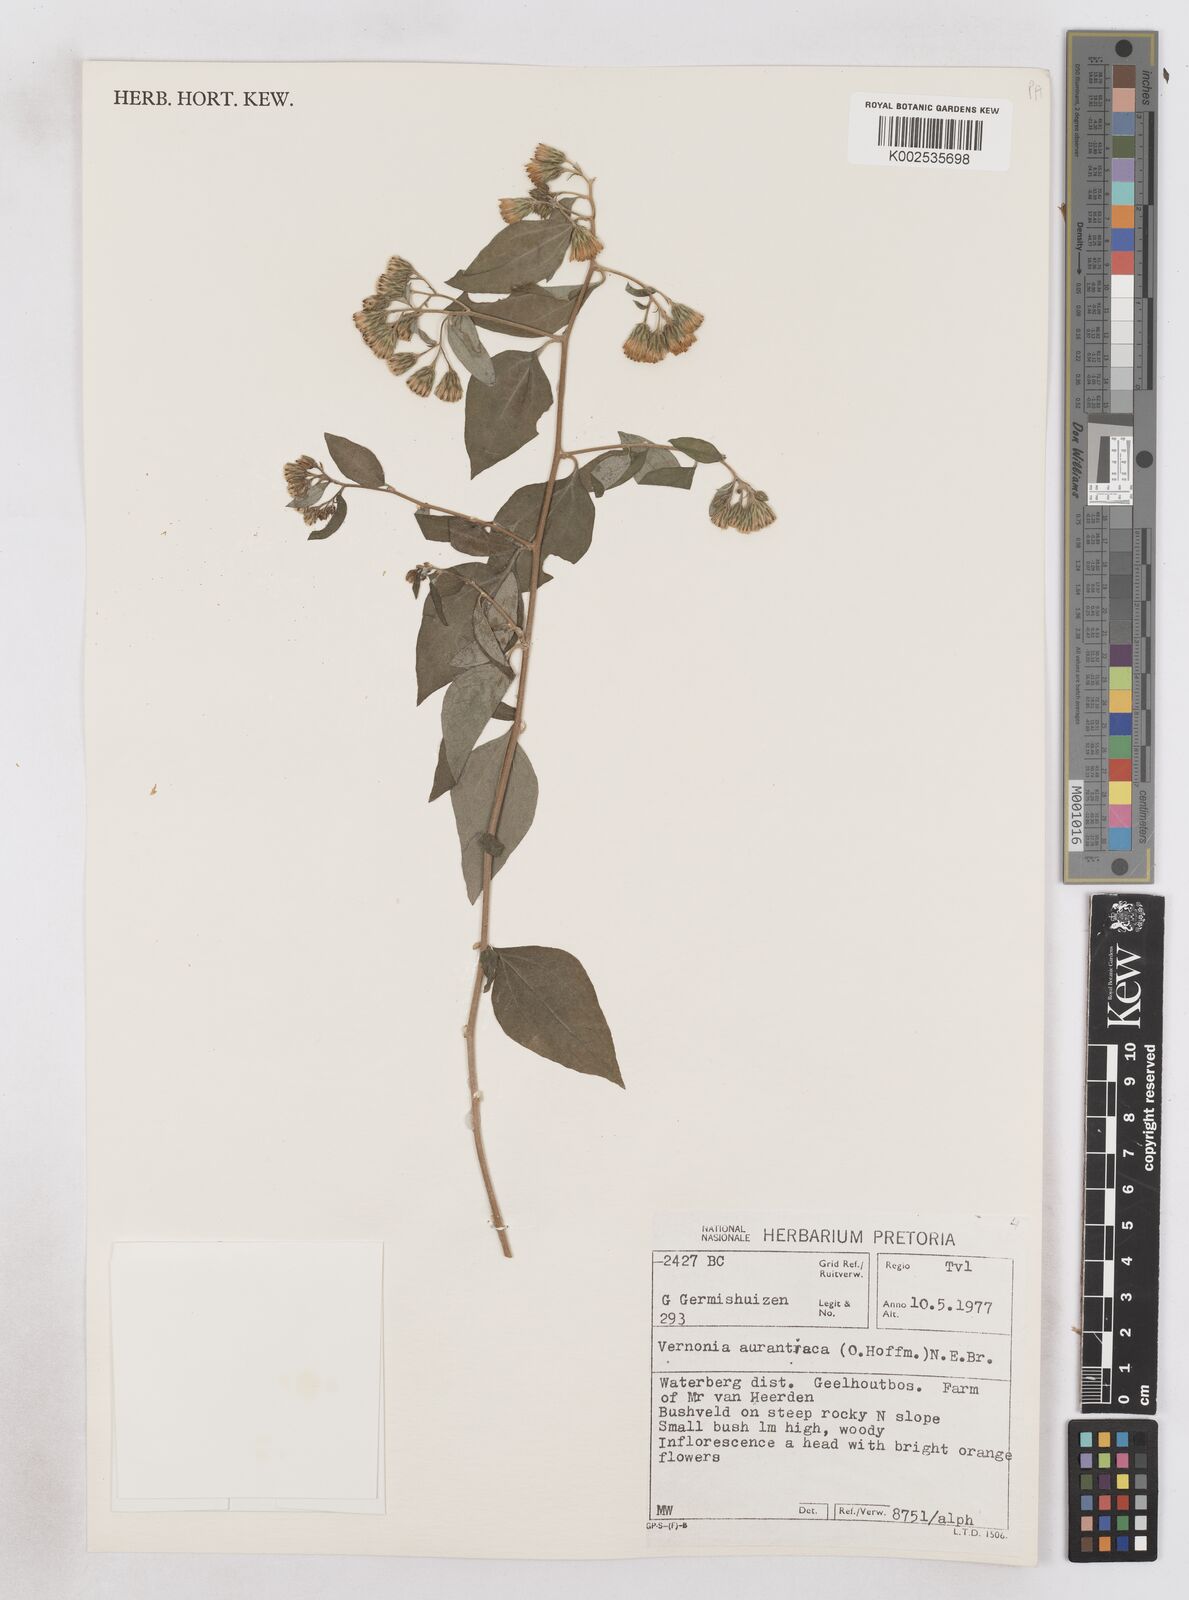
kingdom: Plantae
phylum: Tracheophyta
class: Magnoliopsida
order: Asterales
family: Asteraceae
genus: Distephanus
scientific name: Distephanus
